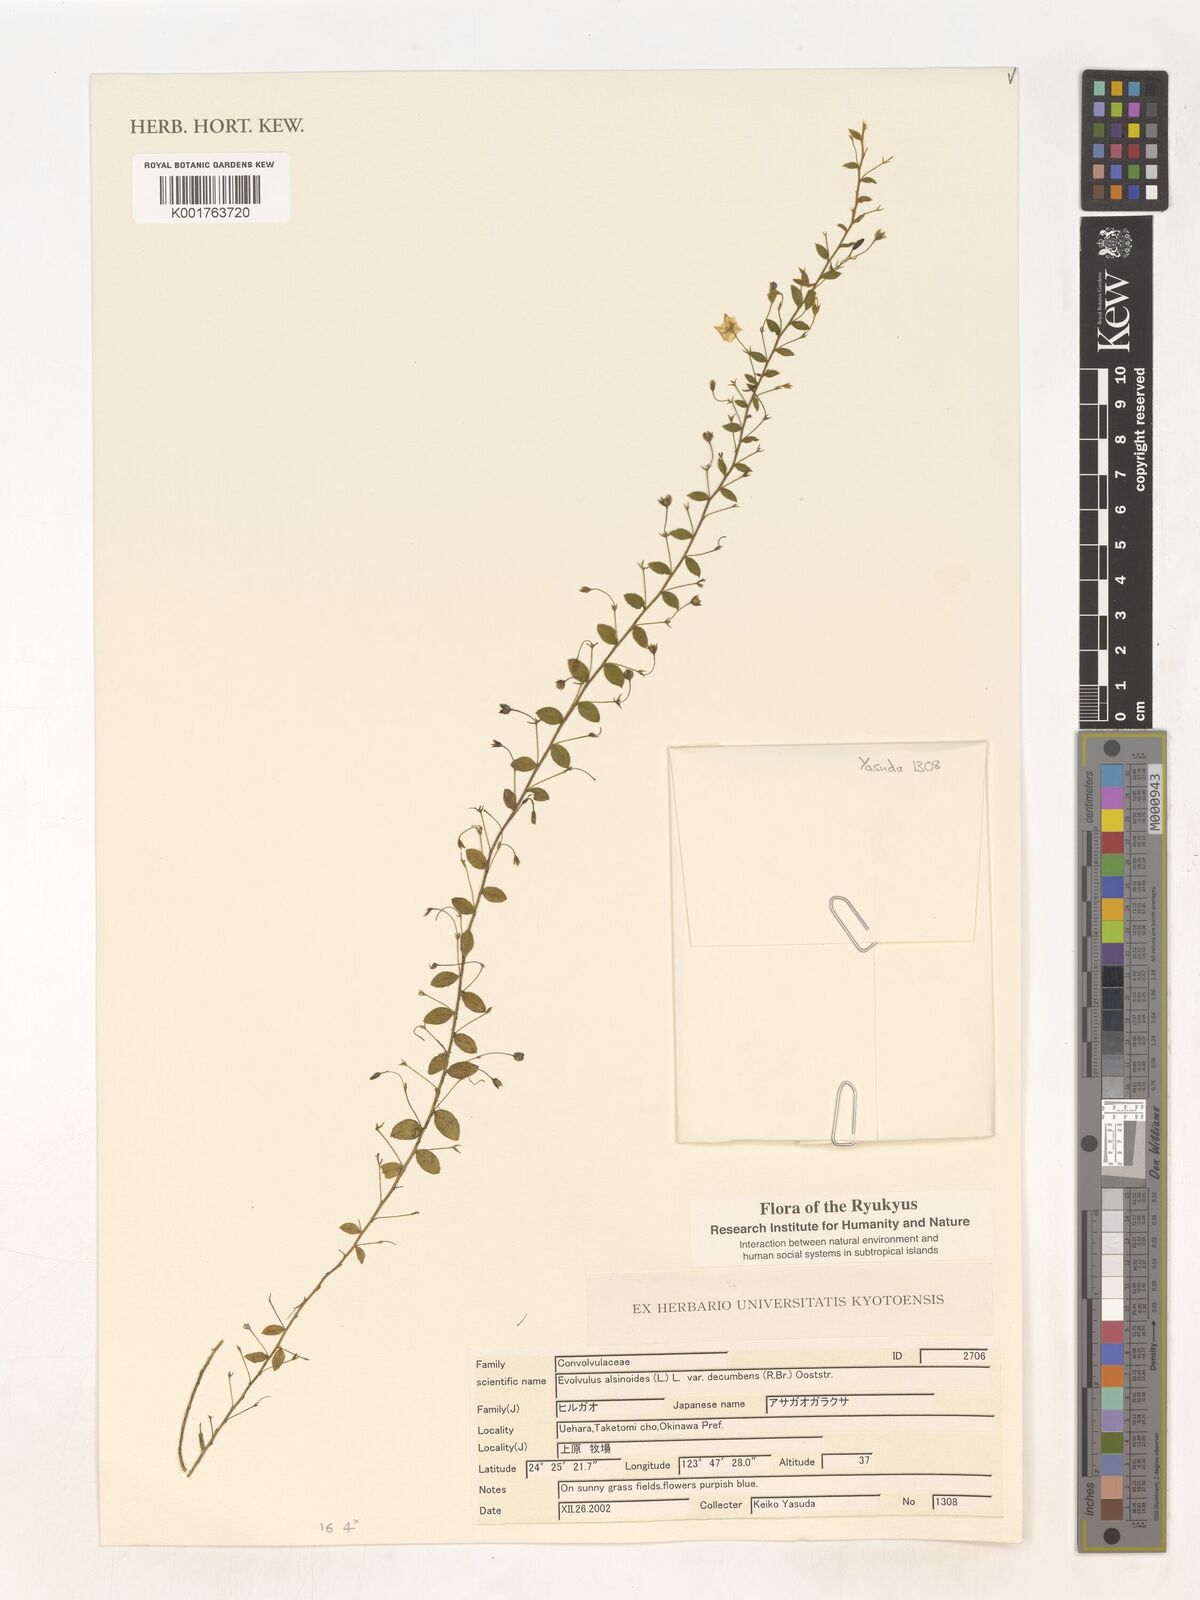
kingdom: Plantae
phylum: Tracheophyta
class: Magnoliopsida
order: Solanales
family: Convolvulaceae
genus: Evolvulus
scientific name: Evolvulus alsinoides
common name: Slender dwarf morning-glory
